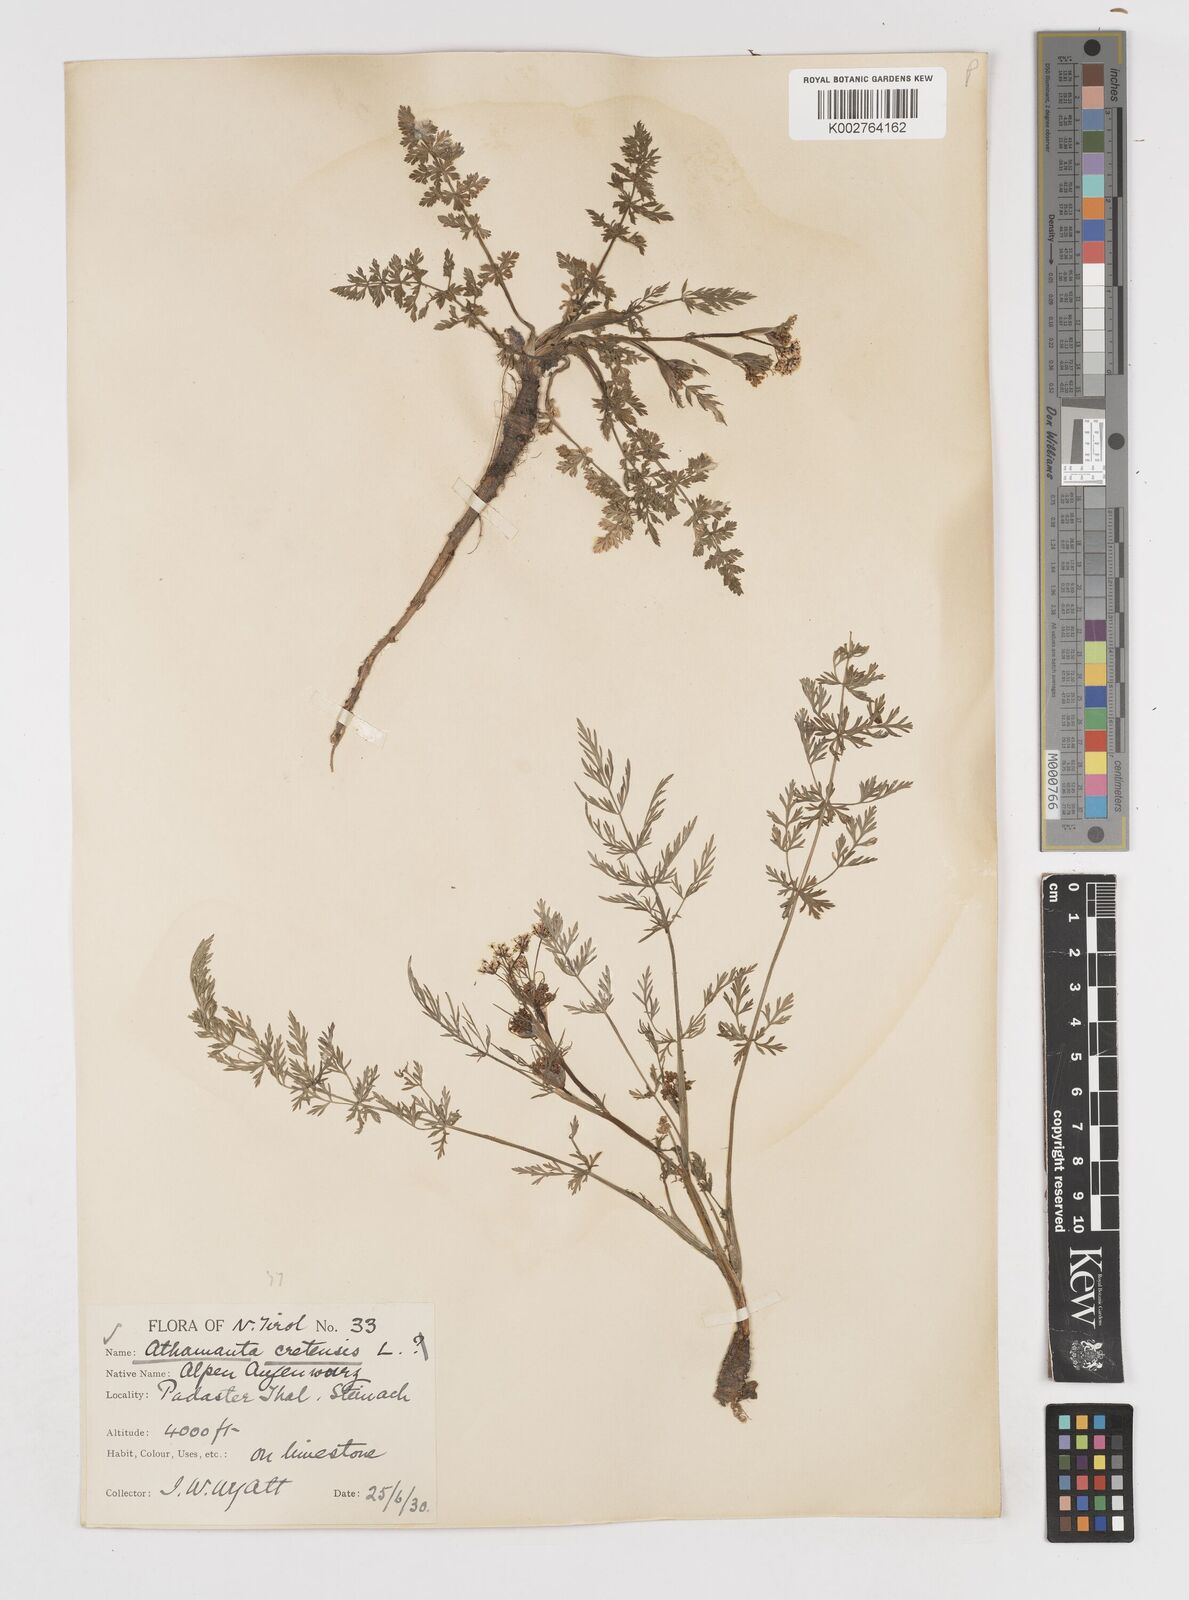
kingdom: Plantae
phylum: Tracheophyta
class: Magnoliopsida
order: Apiales
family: Apiaceae
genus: Athamanta
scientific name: Athamanta cretensis
